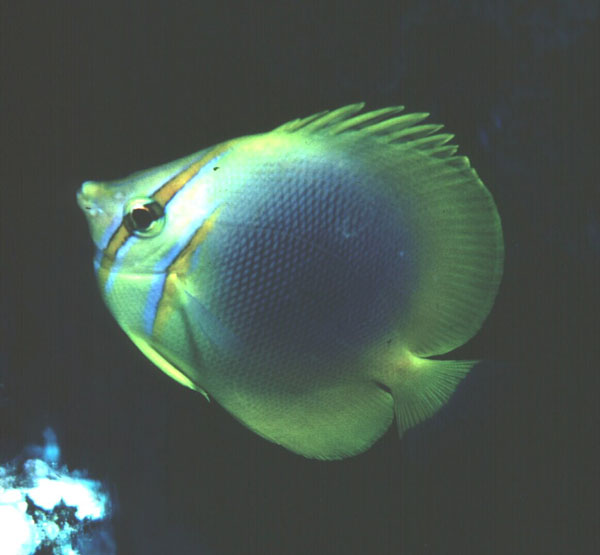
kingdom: Animalia
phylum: Chordata
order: Perciformes
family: Chaetodontidae
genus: Chaetodon
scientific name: Chaetodon aureofasciatus
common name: Golden butterflyfish
